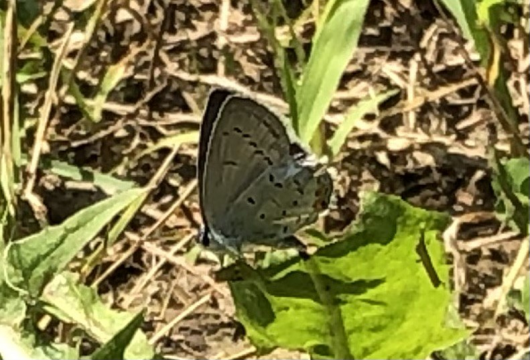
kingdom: Animalia
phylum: Arthropoda
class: Insecta
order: Lepidoptera
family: Lycaenidae
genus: Elkalyce
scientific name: Elkalyce comyntas
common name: Eastern Tailed-Blue
